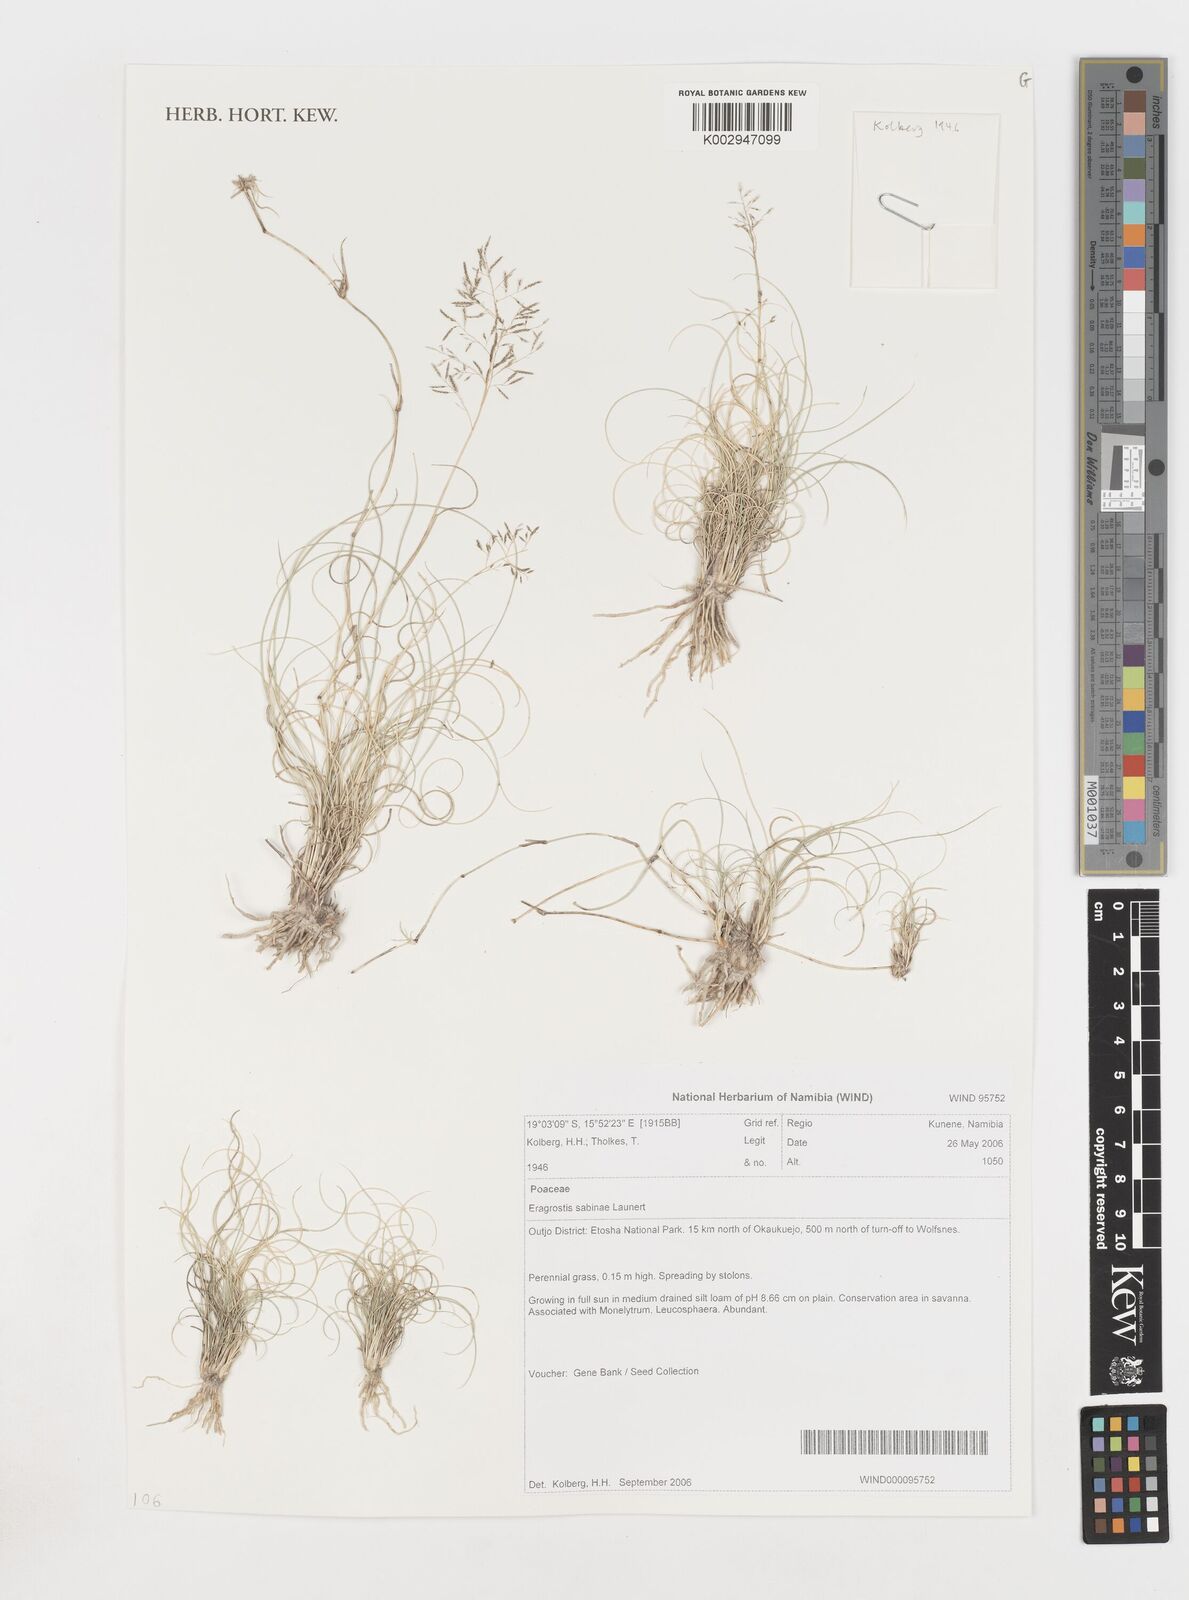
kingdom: Plantae
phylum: Tracheophyta
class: Liliopsida
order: Poales
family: Poaceae
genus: Eragrostis
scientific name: Eragrostis sabinae
